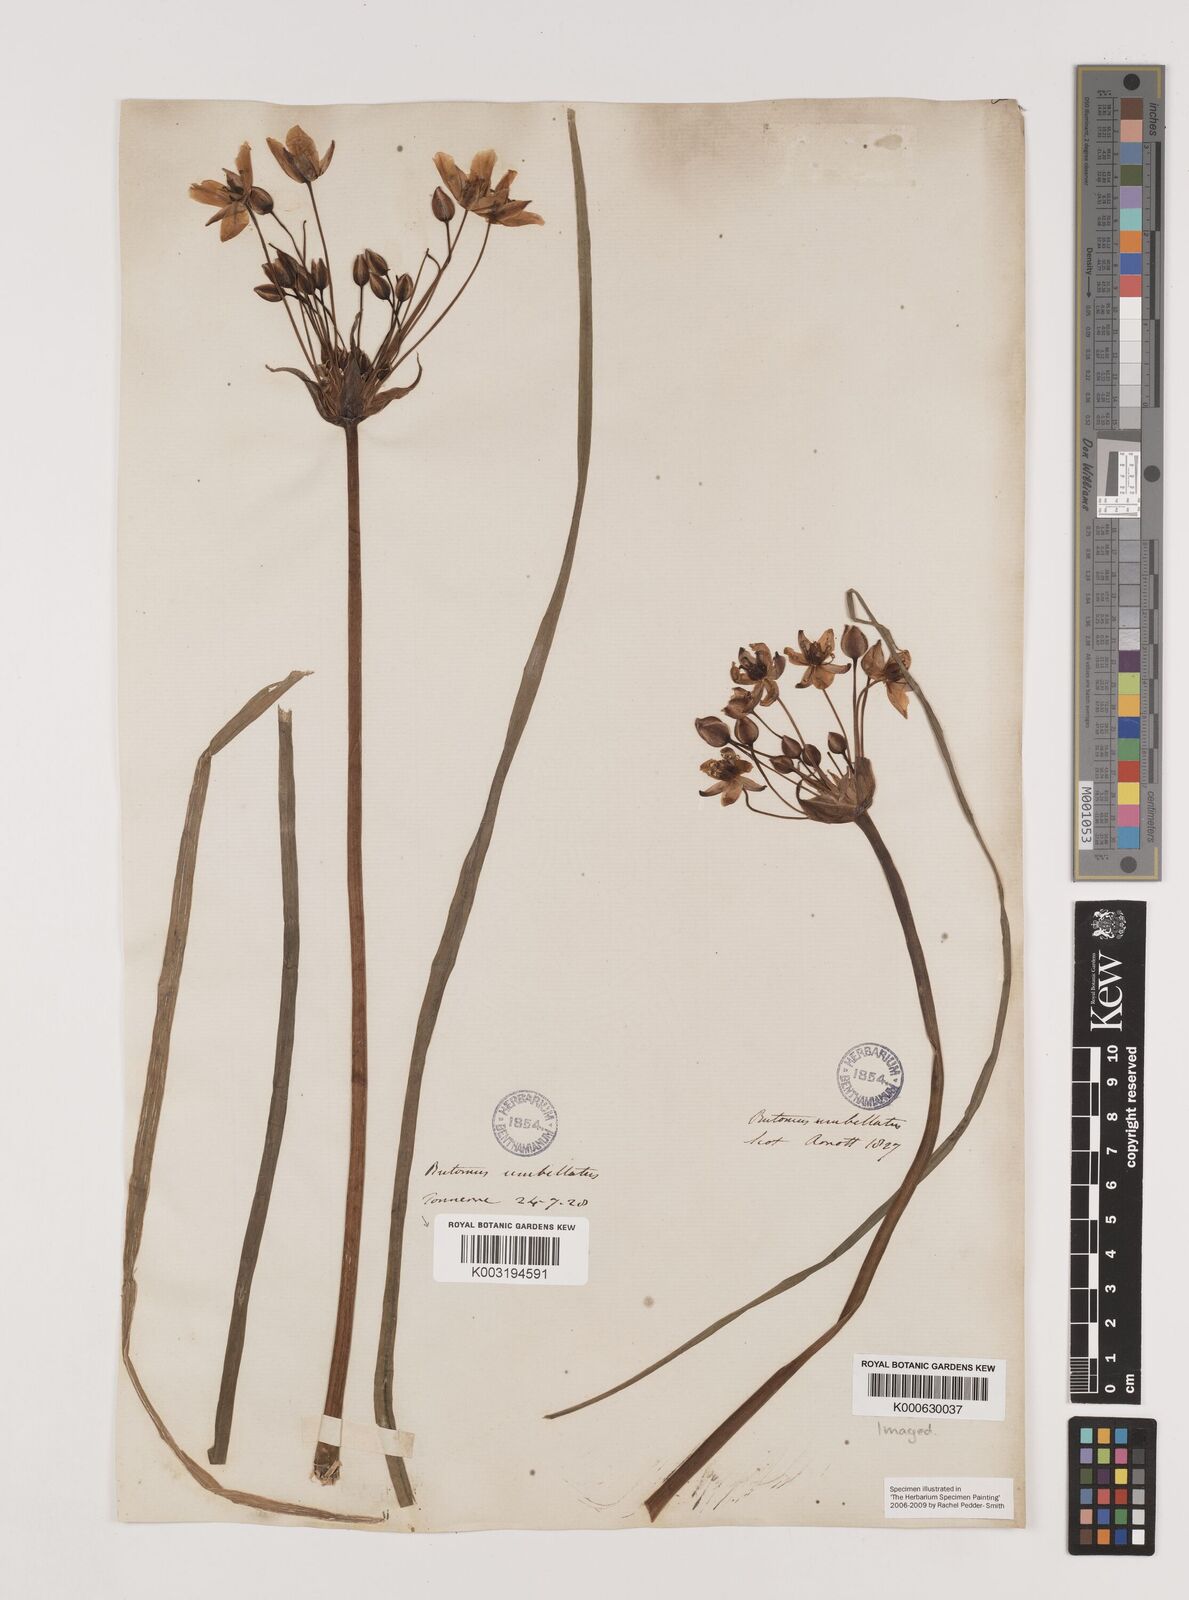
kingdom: Plantae
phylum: Tracheophyta
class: Liliopsida
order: Alismatales
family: Butomaceae
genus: Butomus
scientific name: Butomus umbellatus
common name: Flowering-rush
